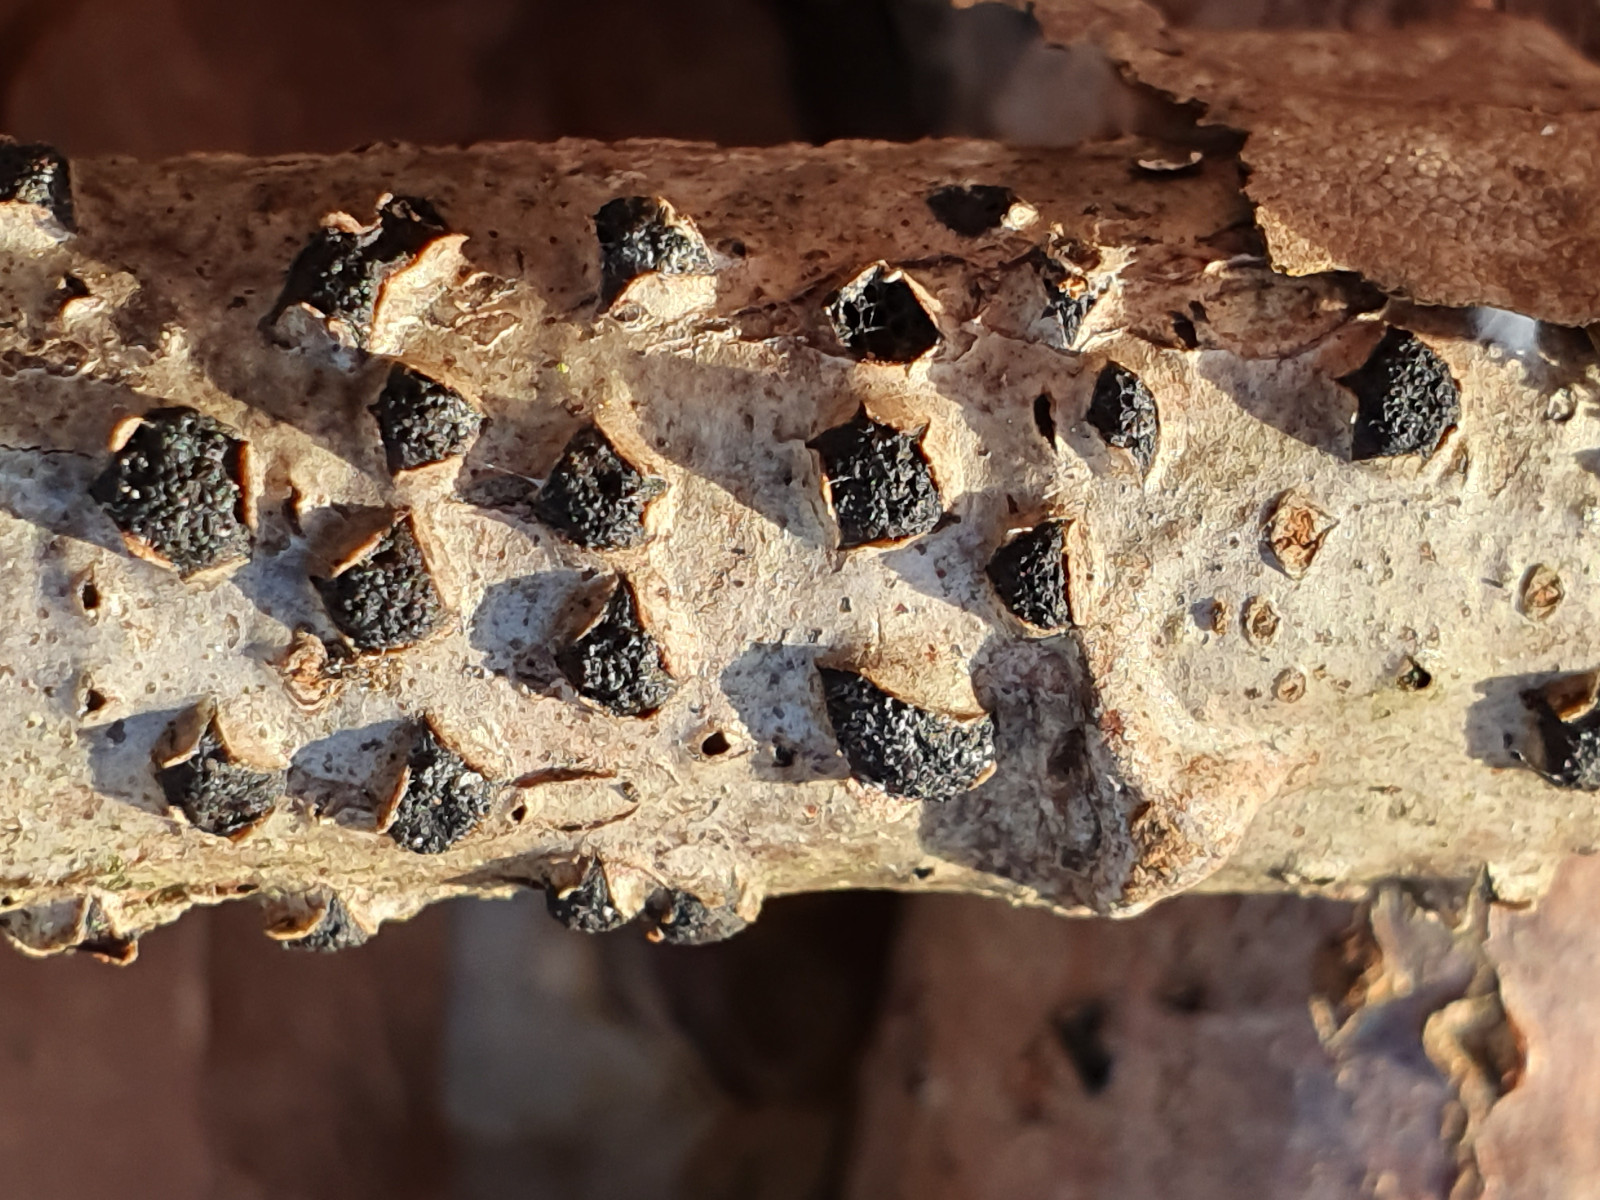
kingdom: Fungi
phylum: Ascomycota
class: Sordariomycetes
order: Xylariales
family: Diatrypaceae
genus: Diatrypella
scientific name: Diatrypella quercina
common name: ege-kulskorpe
